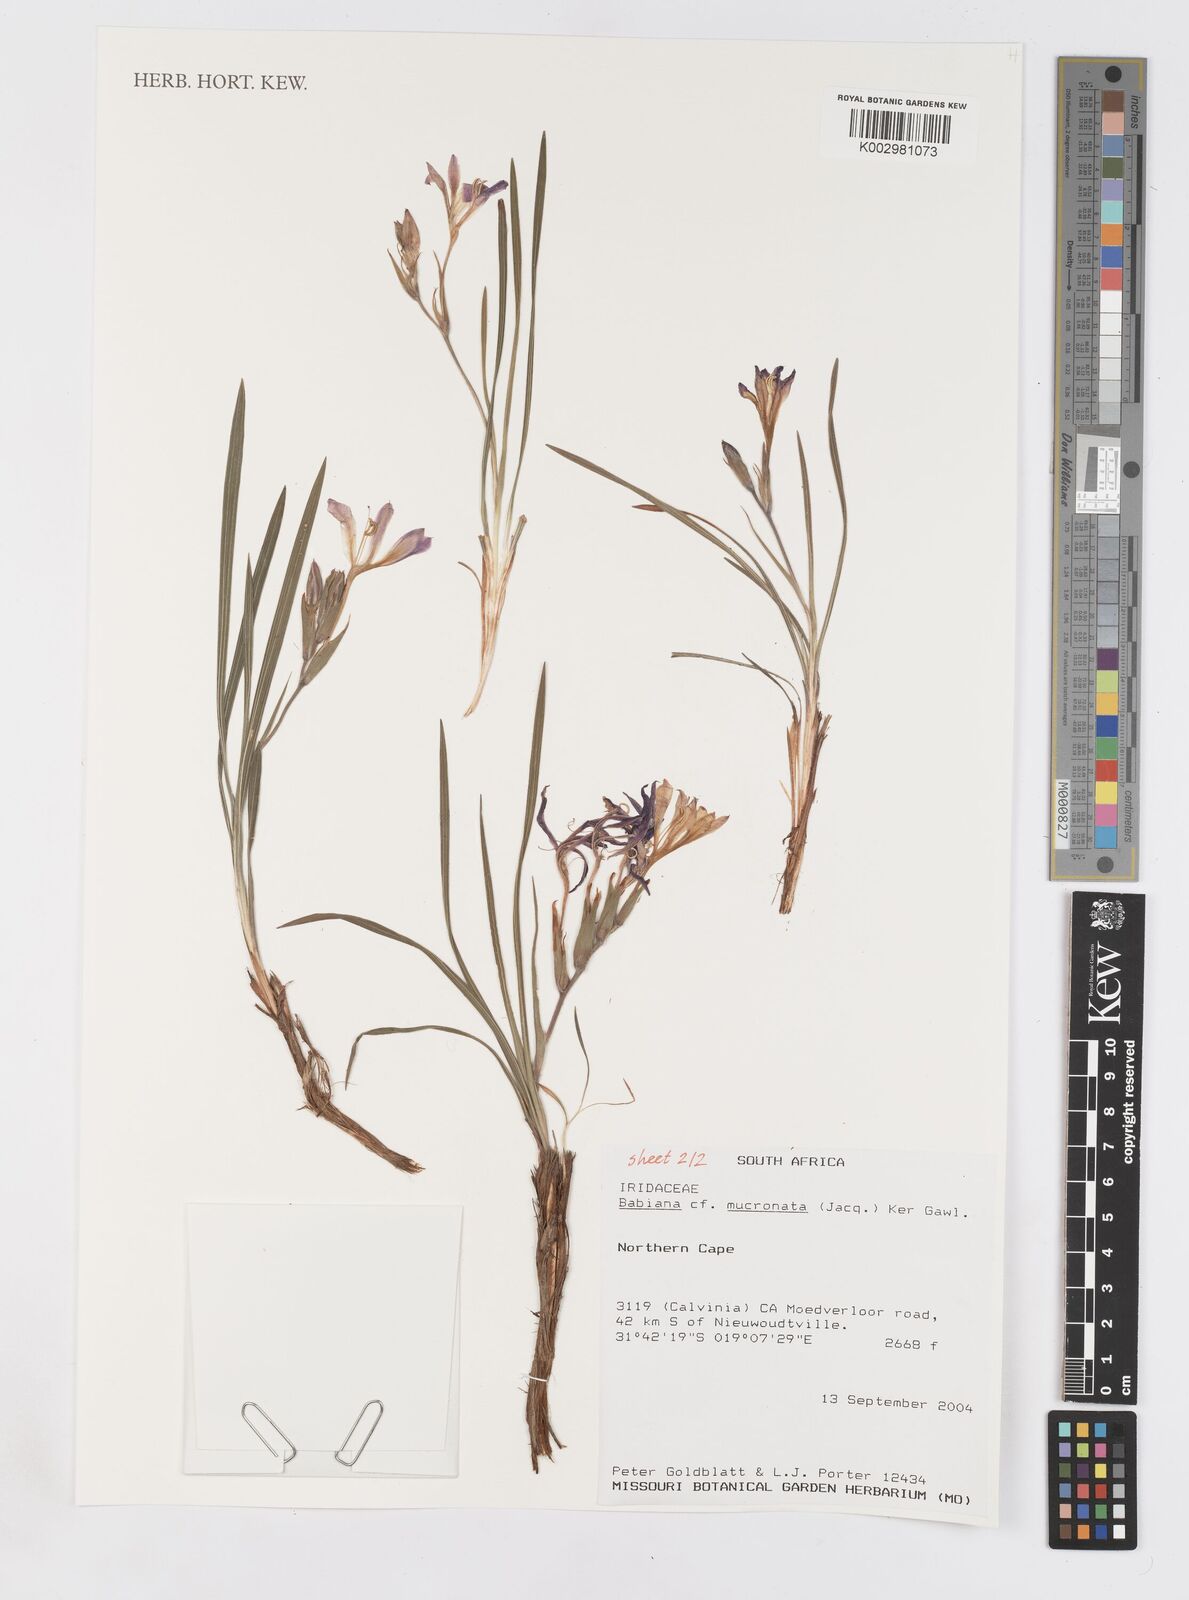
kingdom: Plantae
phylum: Tracheophyta
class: Liliopsida
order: Asparagales
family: Iridaceae
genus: Babiana
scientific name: Babiana mucronata
